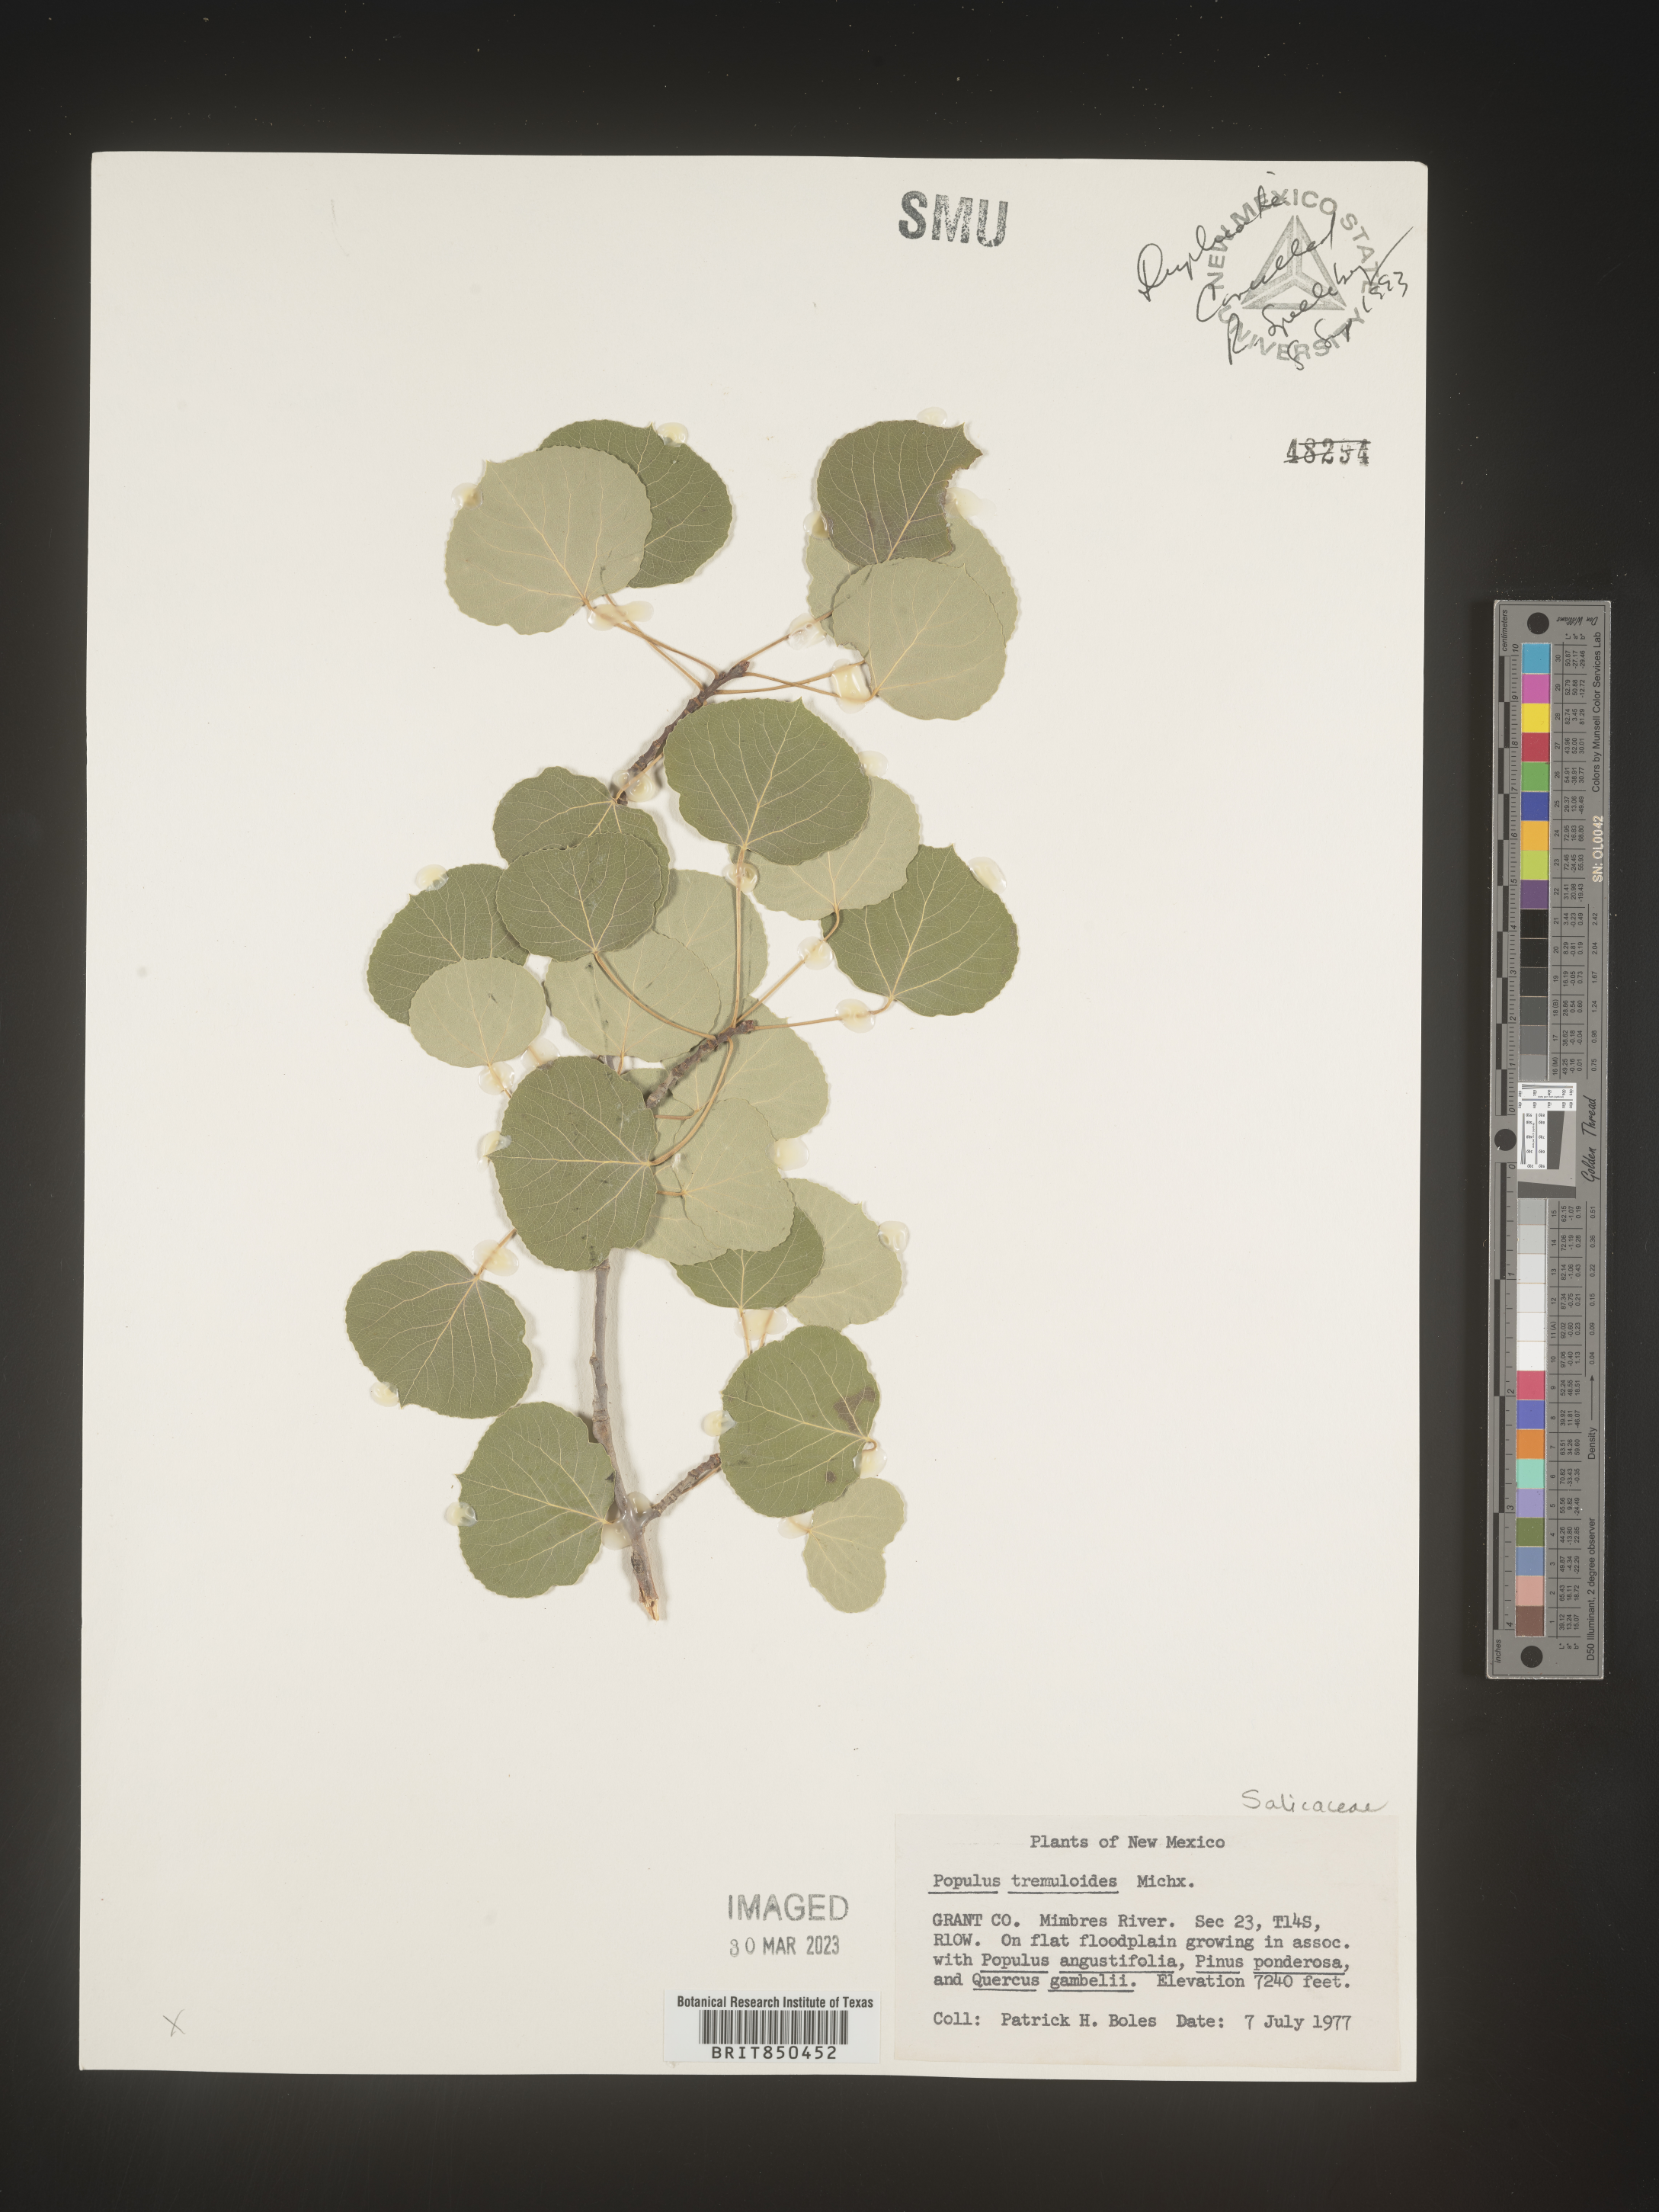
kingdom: Plantae
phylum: Tracheophyta
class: Magnoliopsida
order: Malpighiales
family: Salicaceae
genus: Populus
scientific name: Populus tremuloides
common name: Quaking aspen
